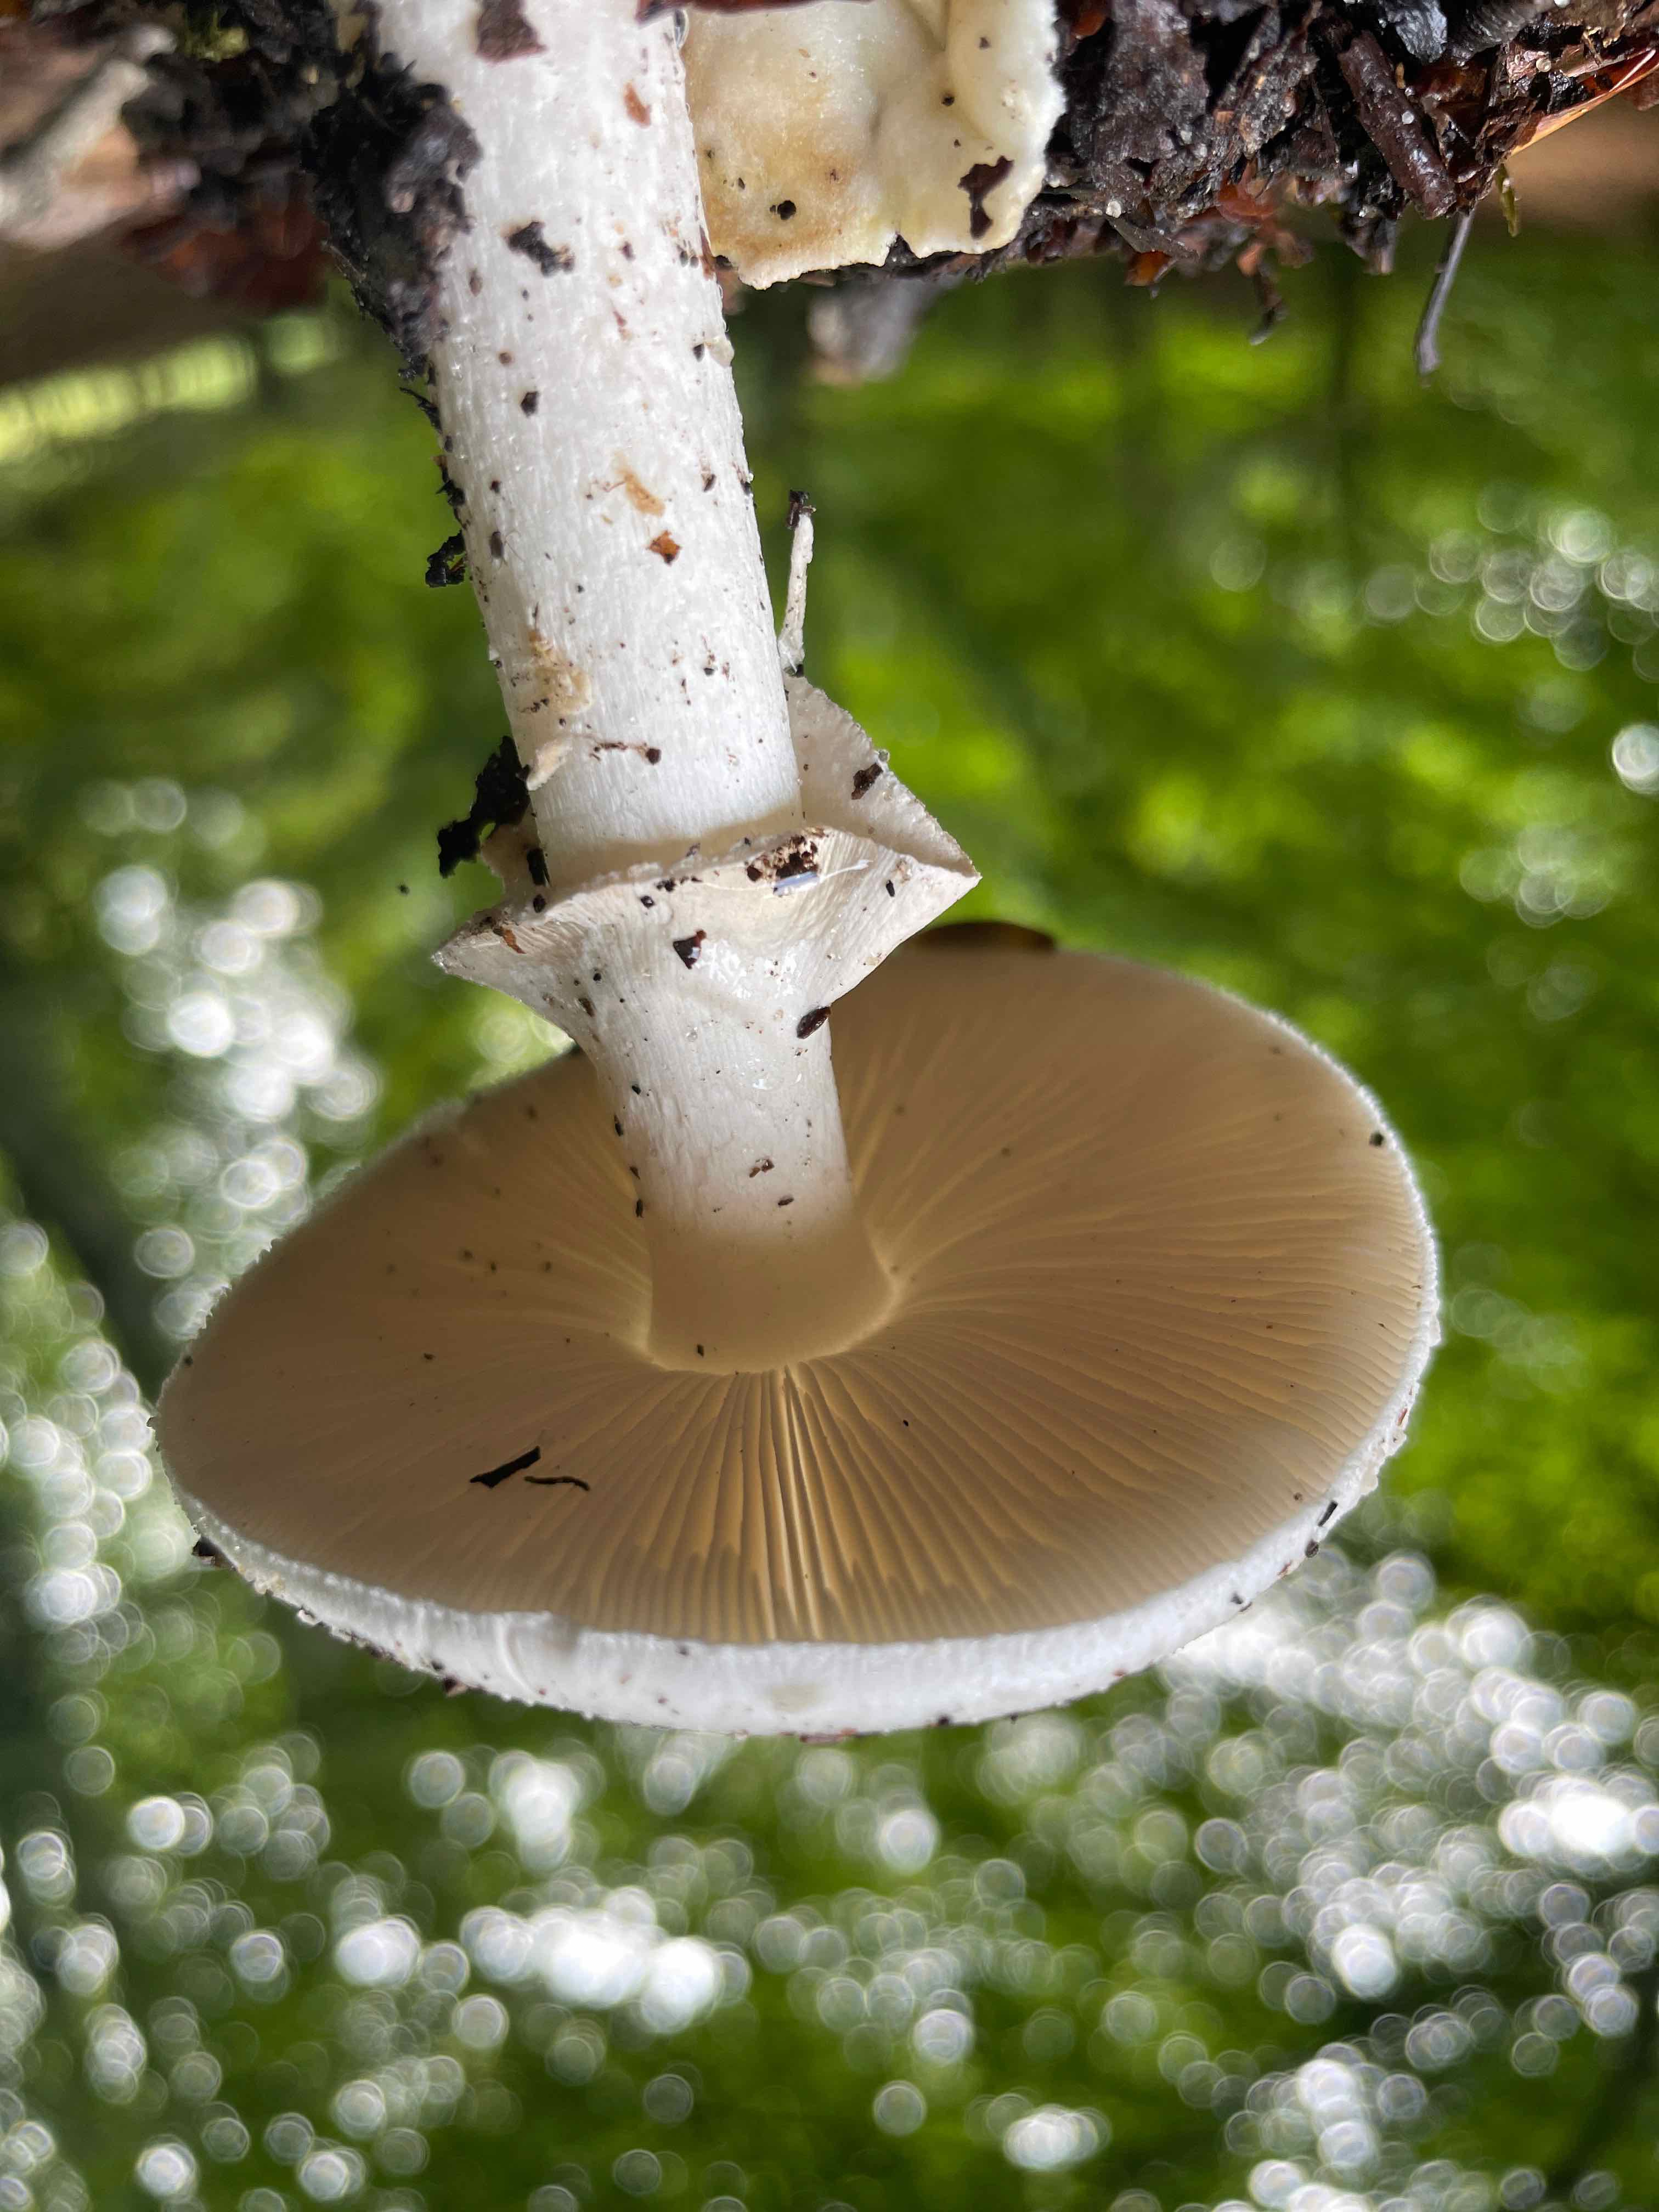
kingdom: Fungi
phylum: Basidiomycota
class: Agaricomycetes
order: Agaricales
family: Amanitaceae
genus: Amanita
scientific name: Amanita citrina
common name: kugleknoldet fluesvamp
